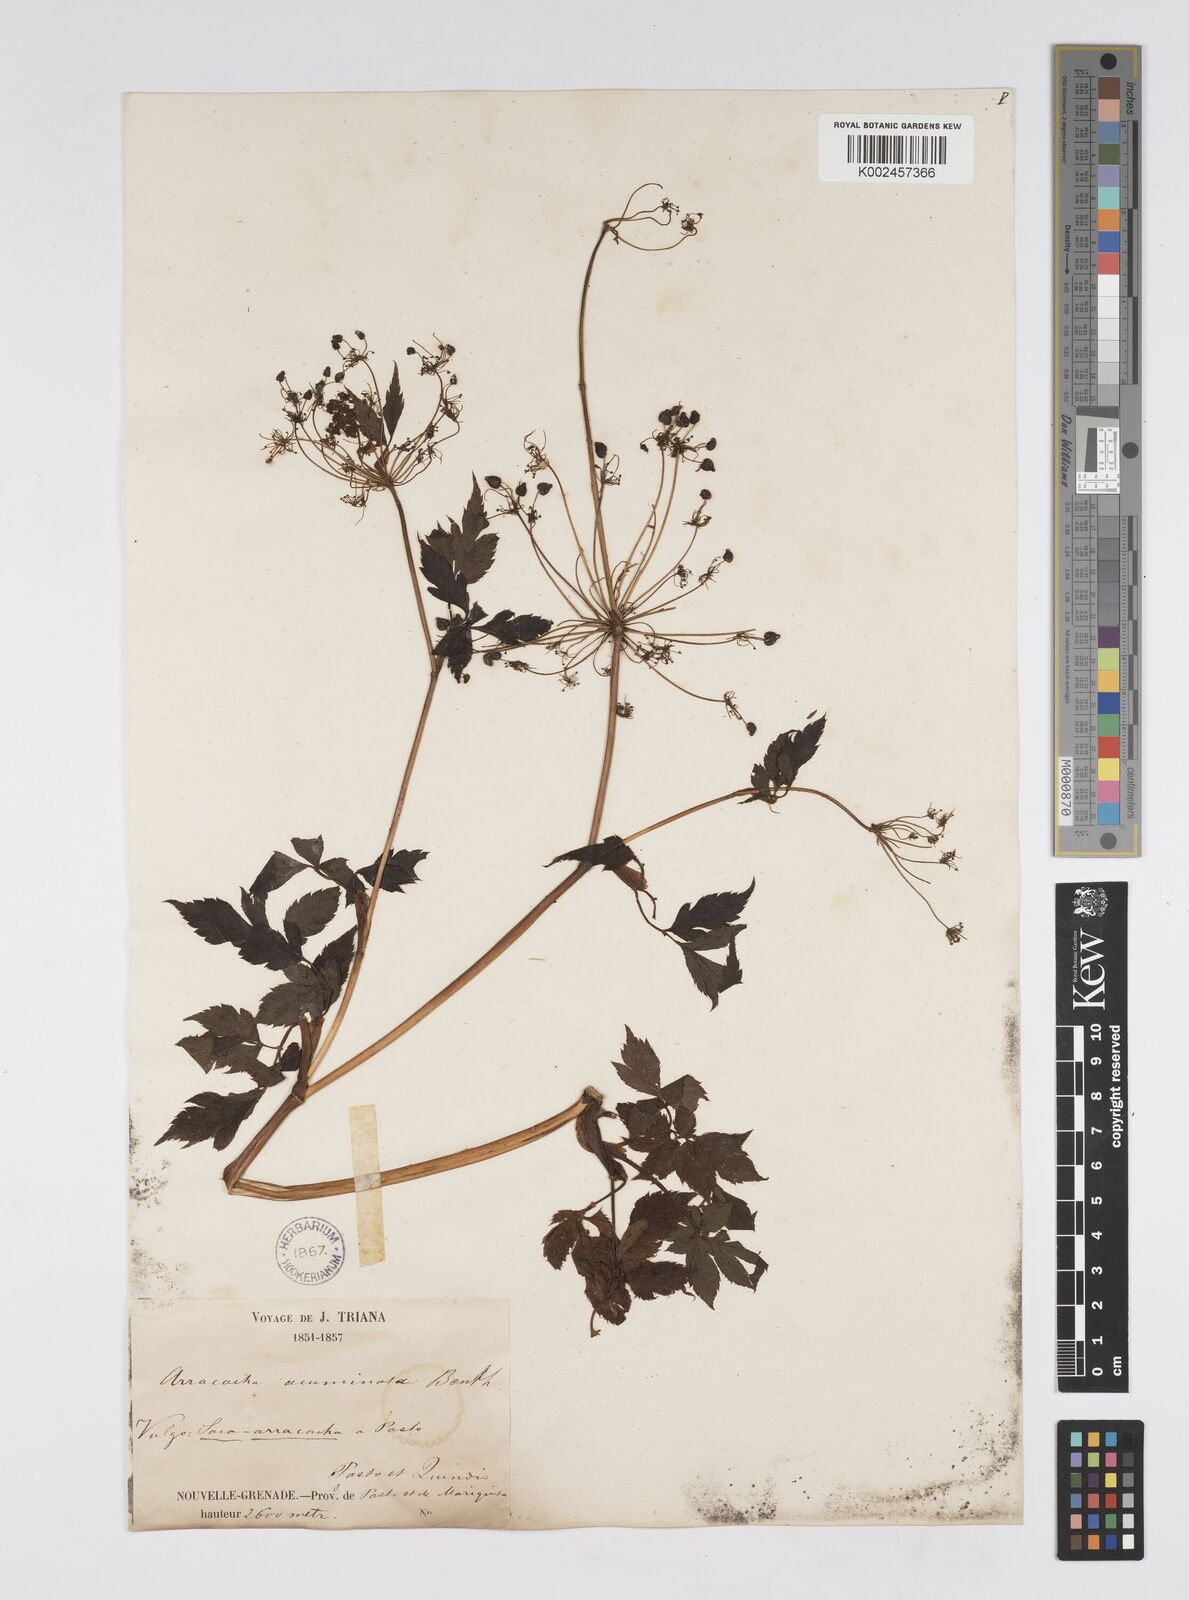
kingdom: Plantae
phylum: Tracheophyta
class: Magnoliopsida
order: Apiales
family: Apiaceae
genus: Neonelsonia
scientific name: Neonelsonia acuminata
